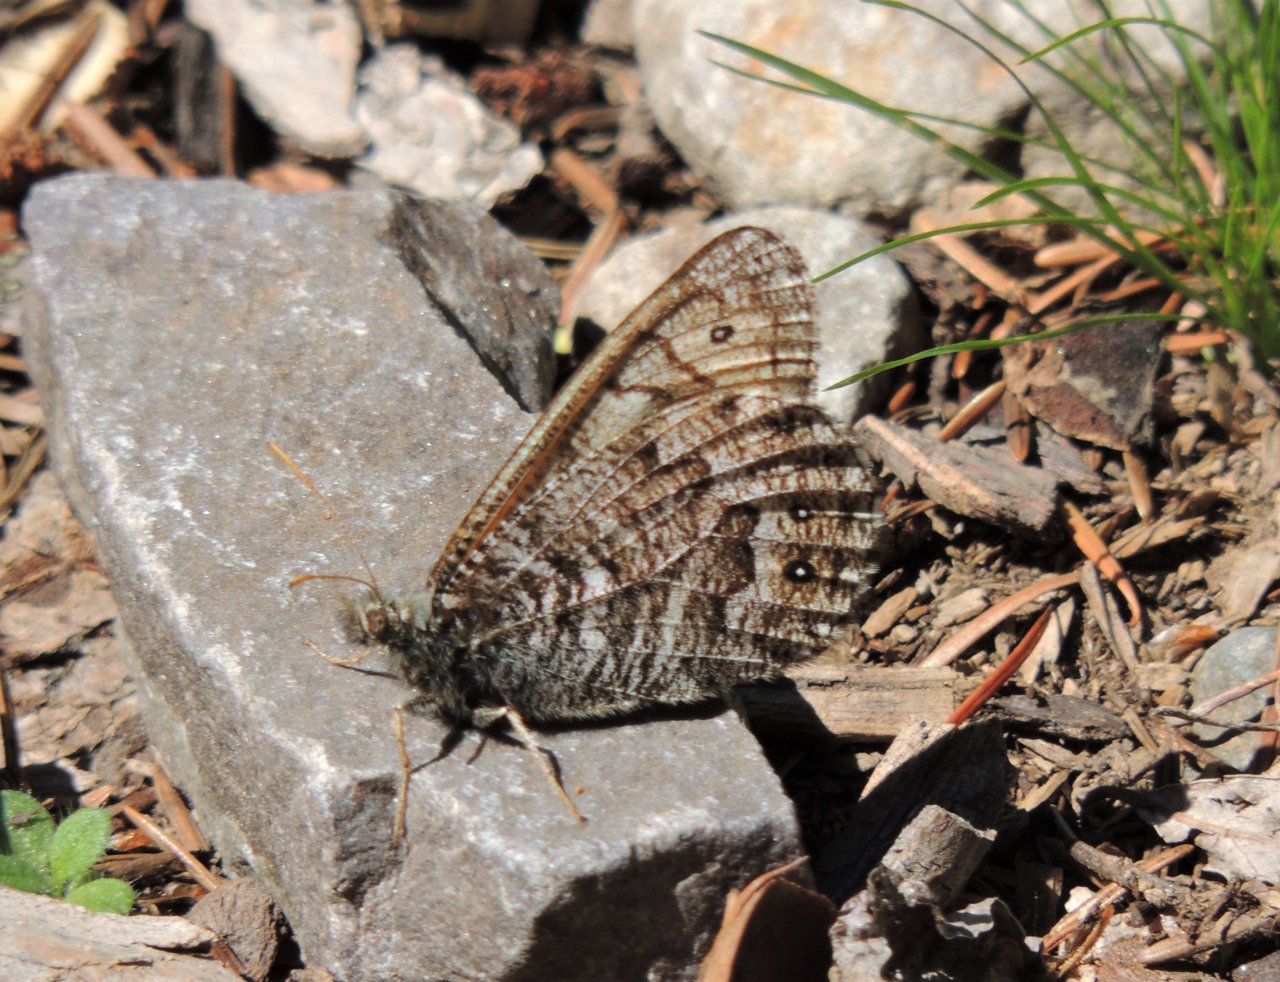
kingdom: Animalia
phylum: Arthropoda
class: Insecta
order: Lepidoptera
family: Nymphalidae
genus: Oeneis
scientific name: Oeneis chryxus
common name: Chryxus Arctic
